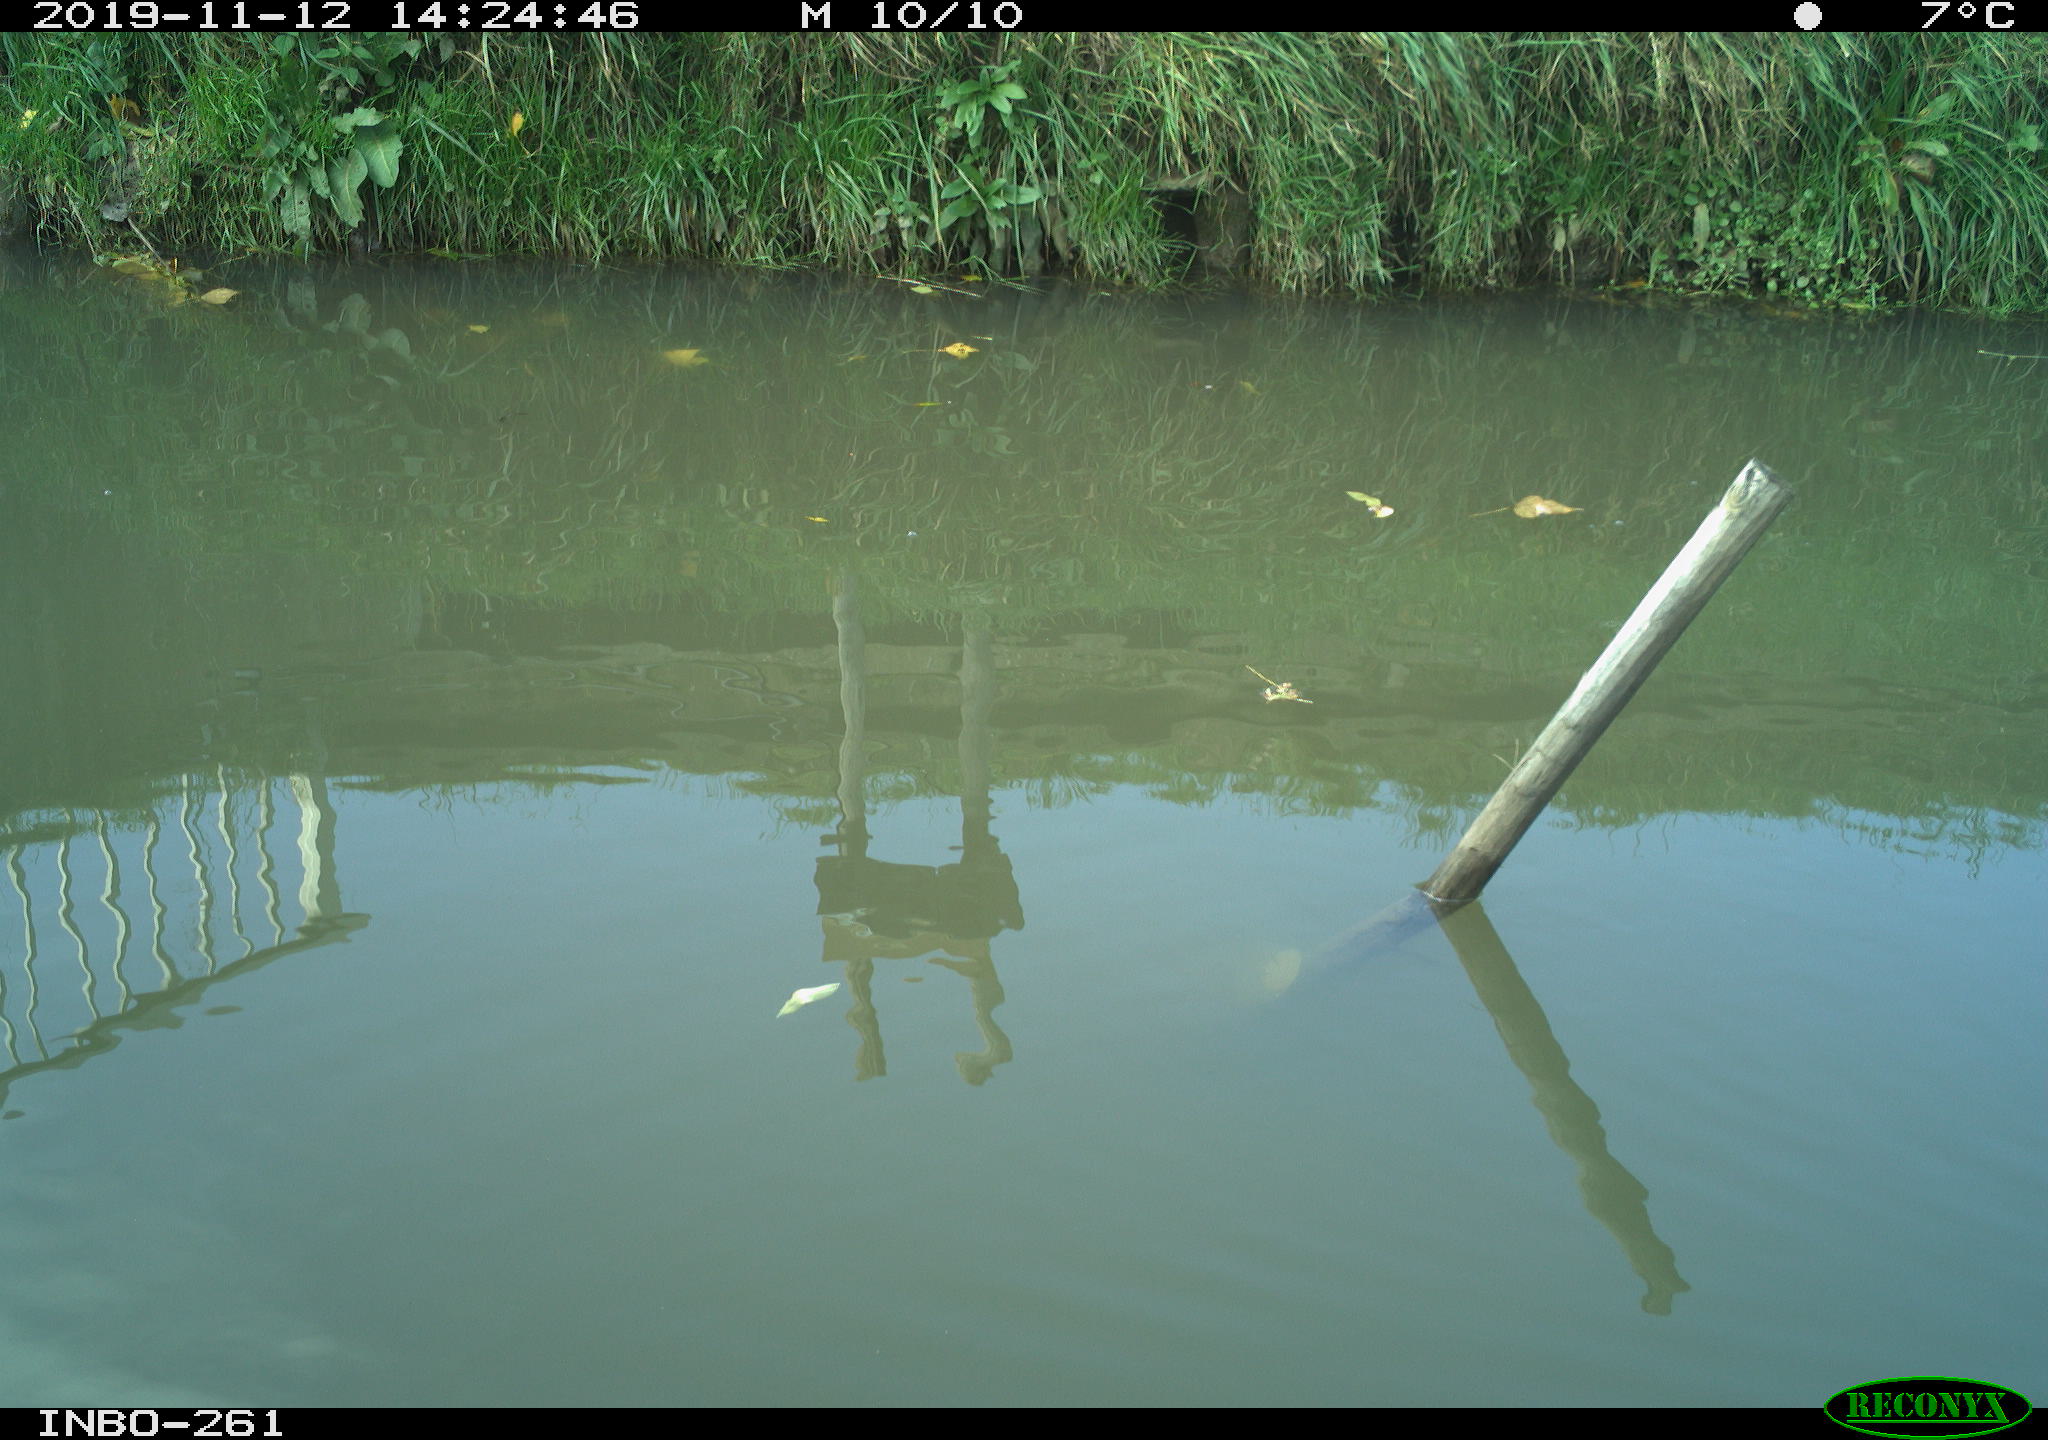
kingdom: Animalia
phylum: Chordata
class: Aves
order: Gruiformes
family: Rallidae
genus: Gallinula
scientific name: Gallinula chloropus
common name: Common moorhen
